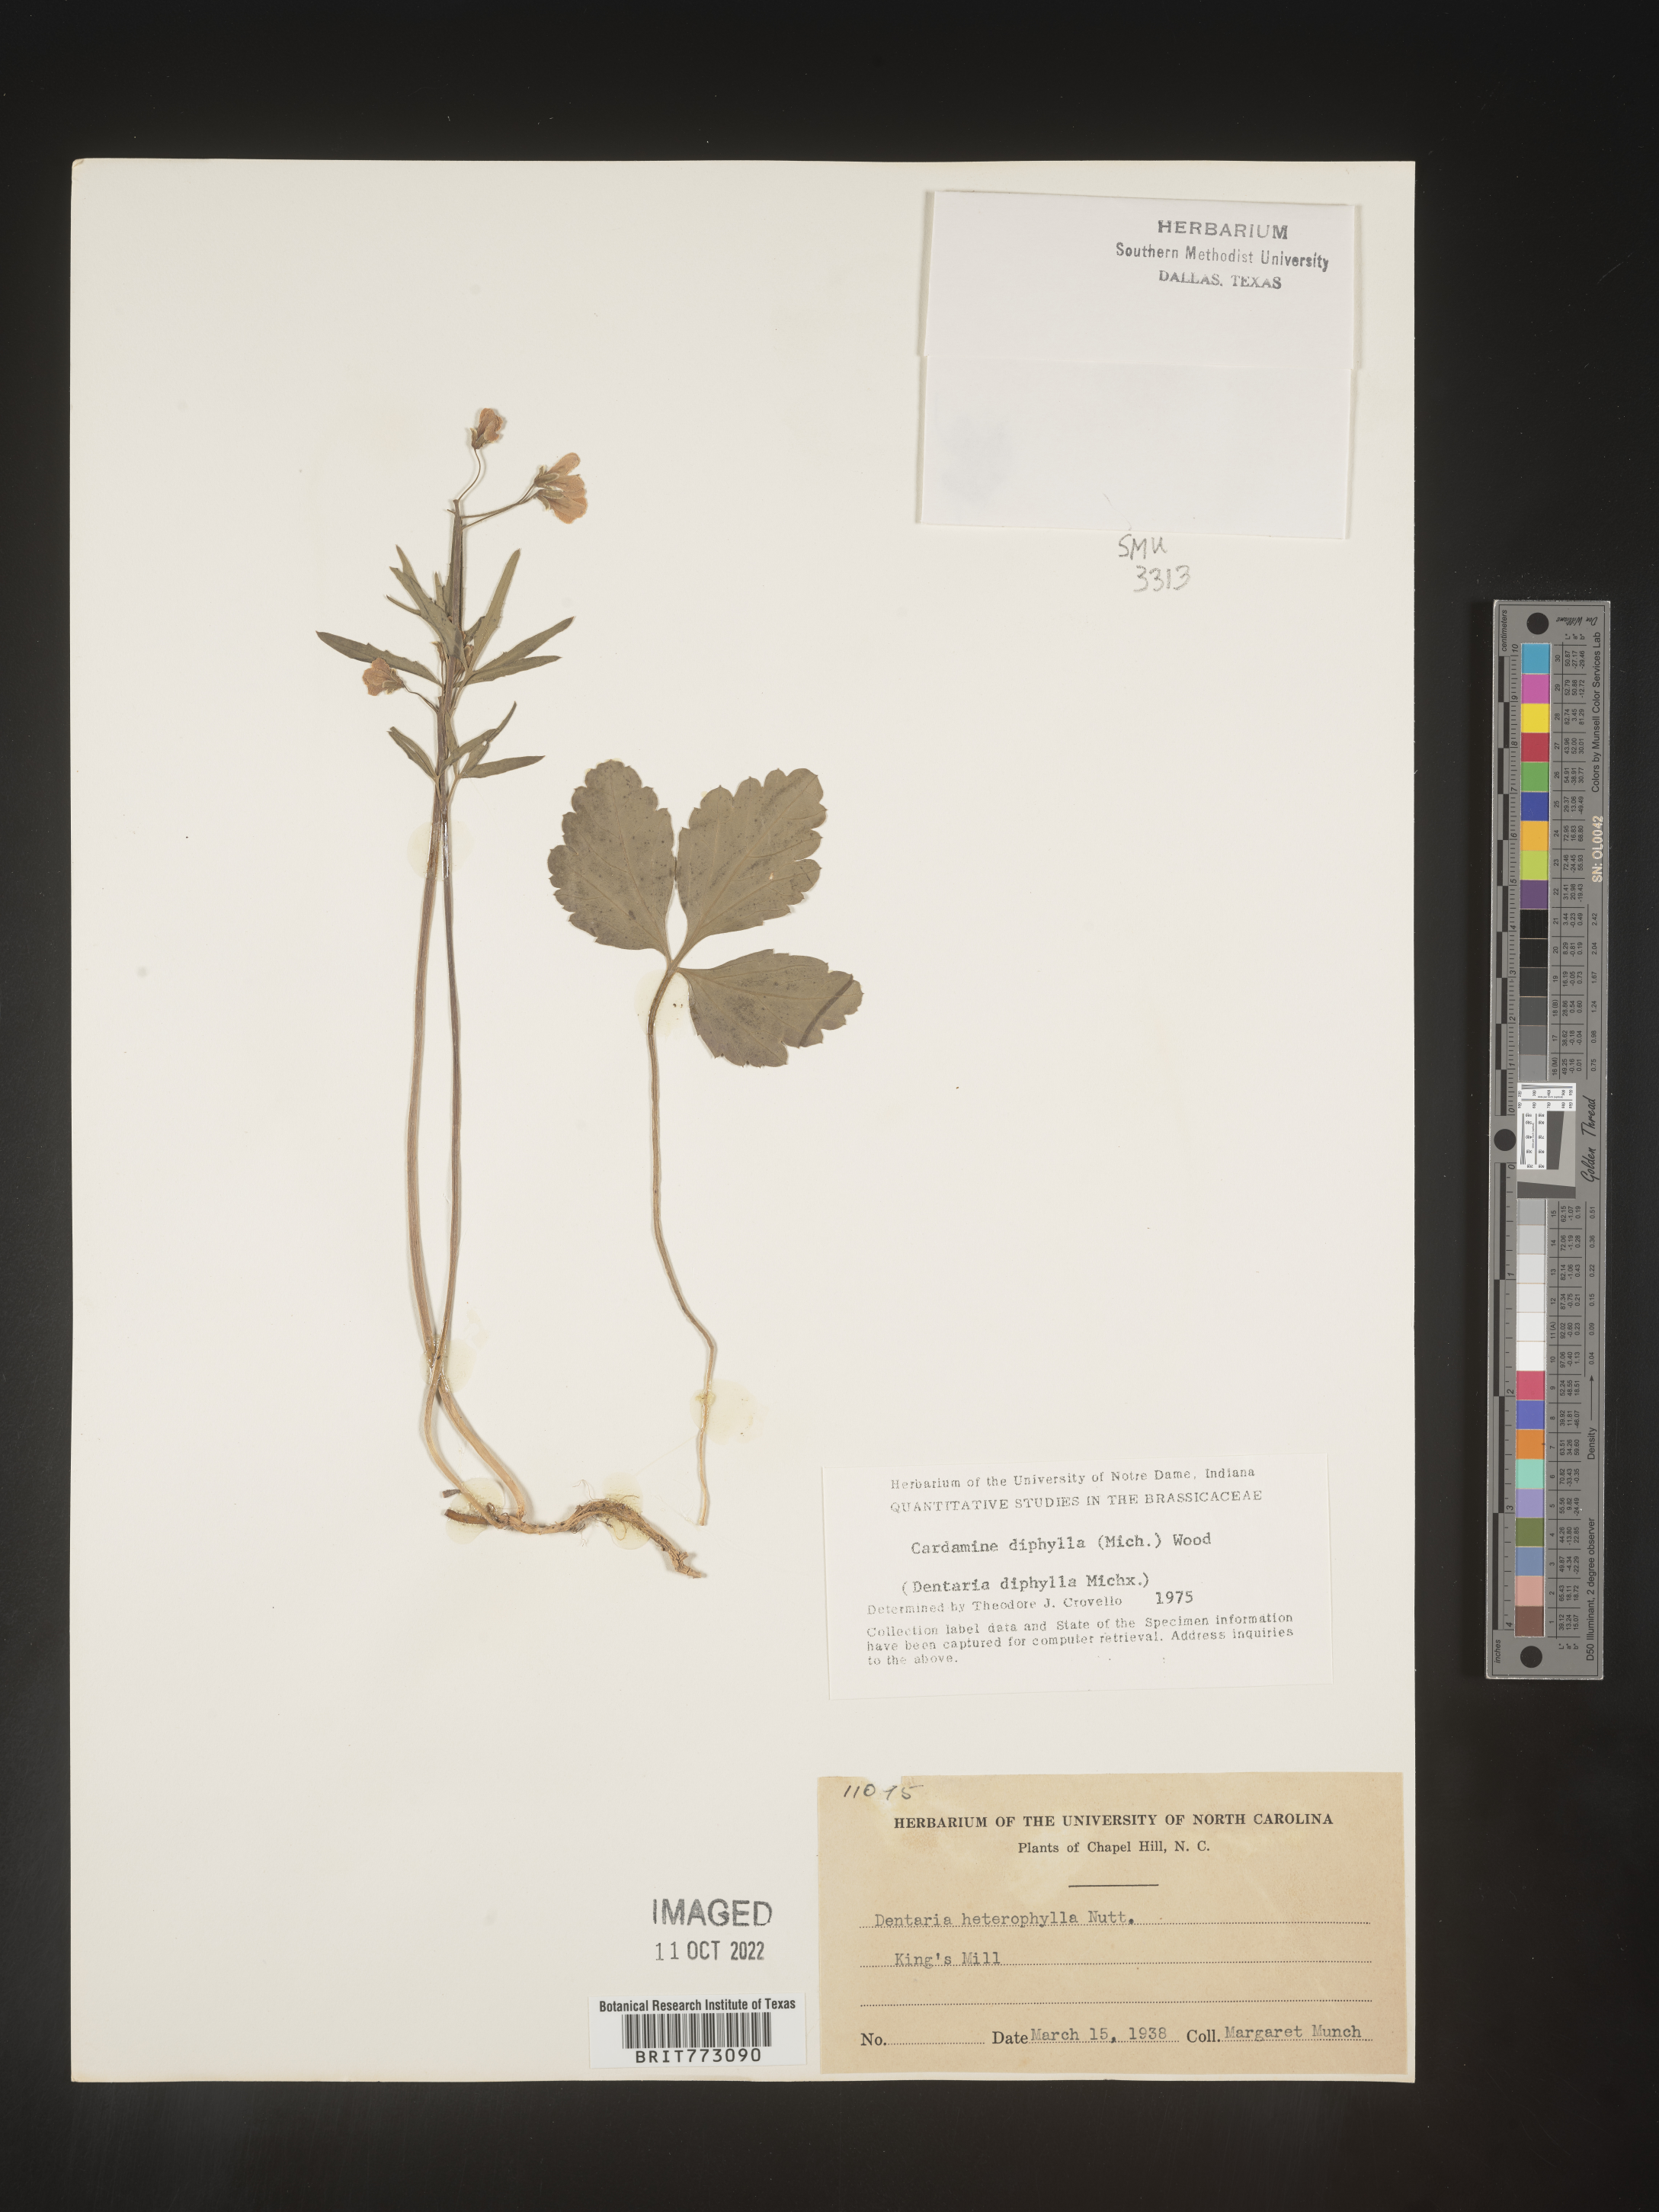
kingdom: Plantae
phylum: Tracheophyta
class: Magnoliopsida
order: Brassicales
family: Brassicaceae
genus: Cardamine
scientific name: Cardamine diphylla
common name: Broad-leaved toothwort
